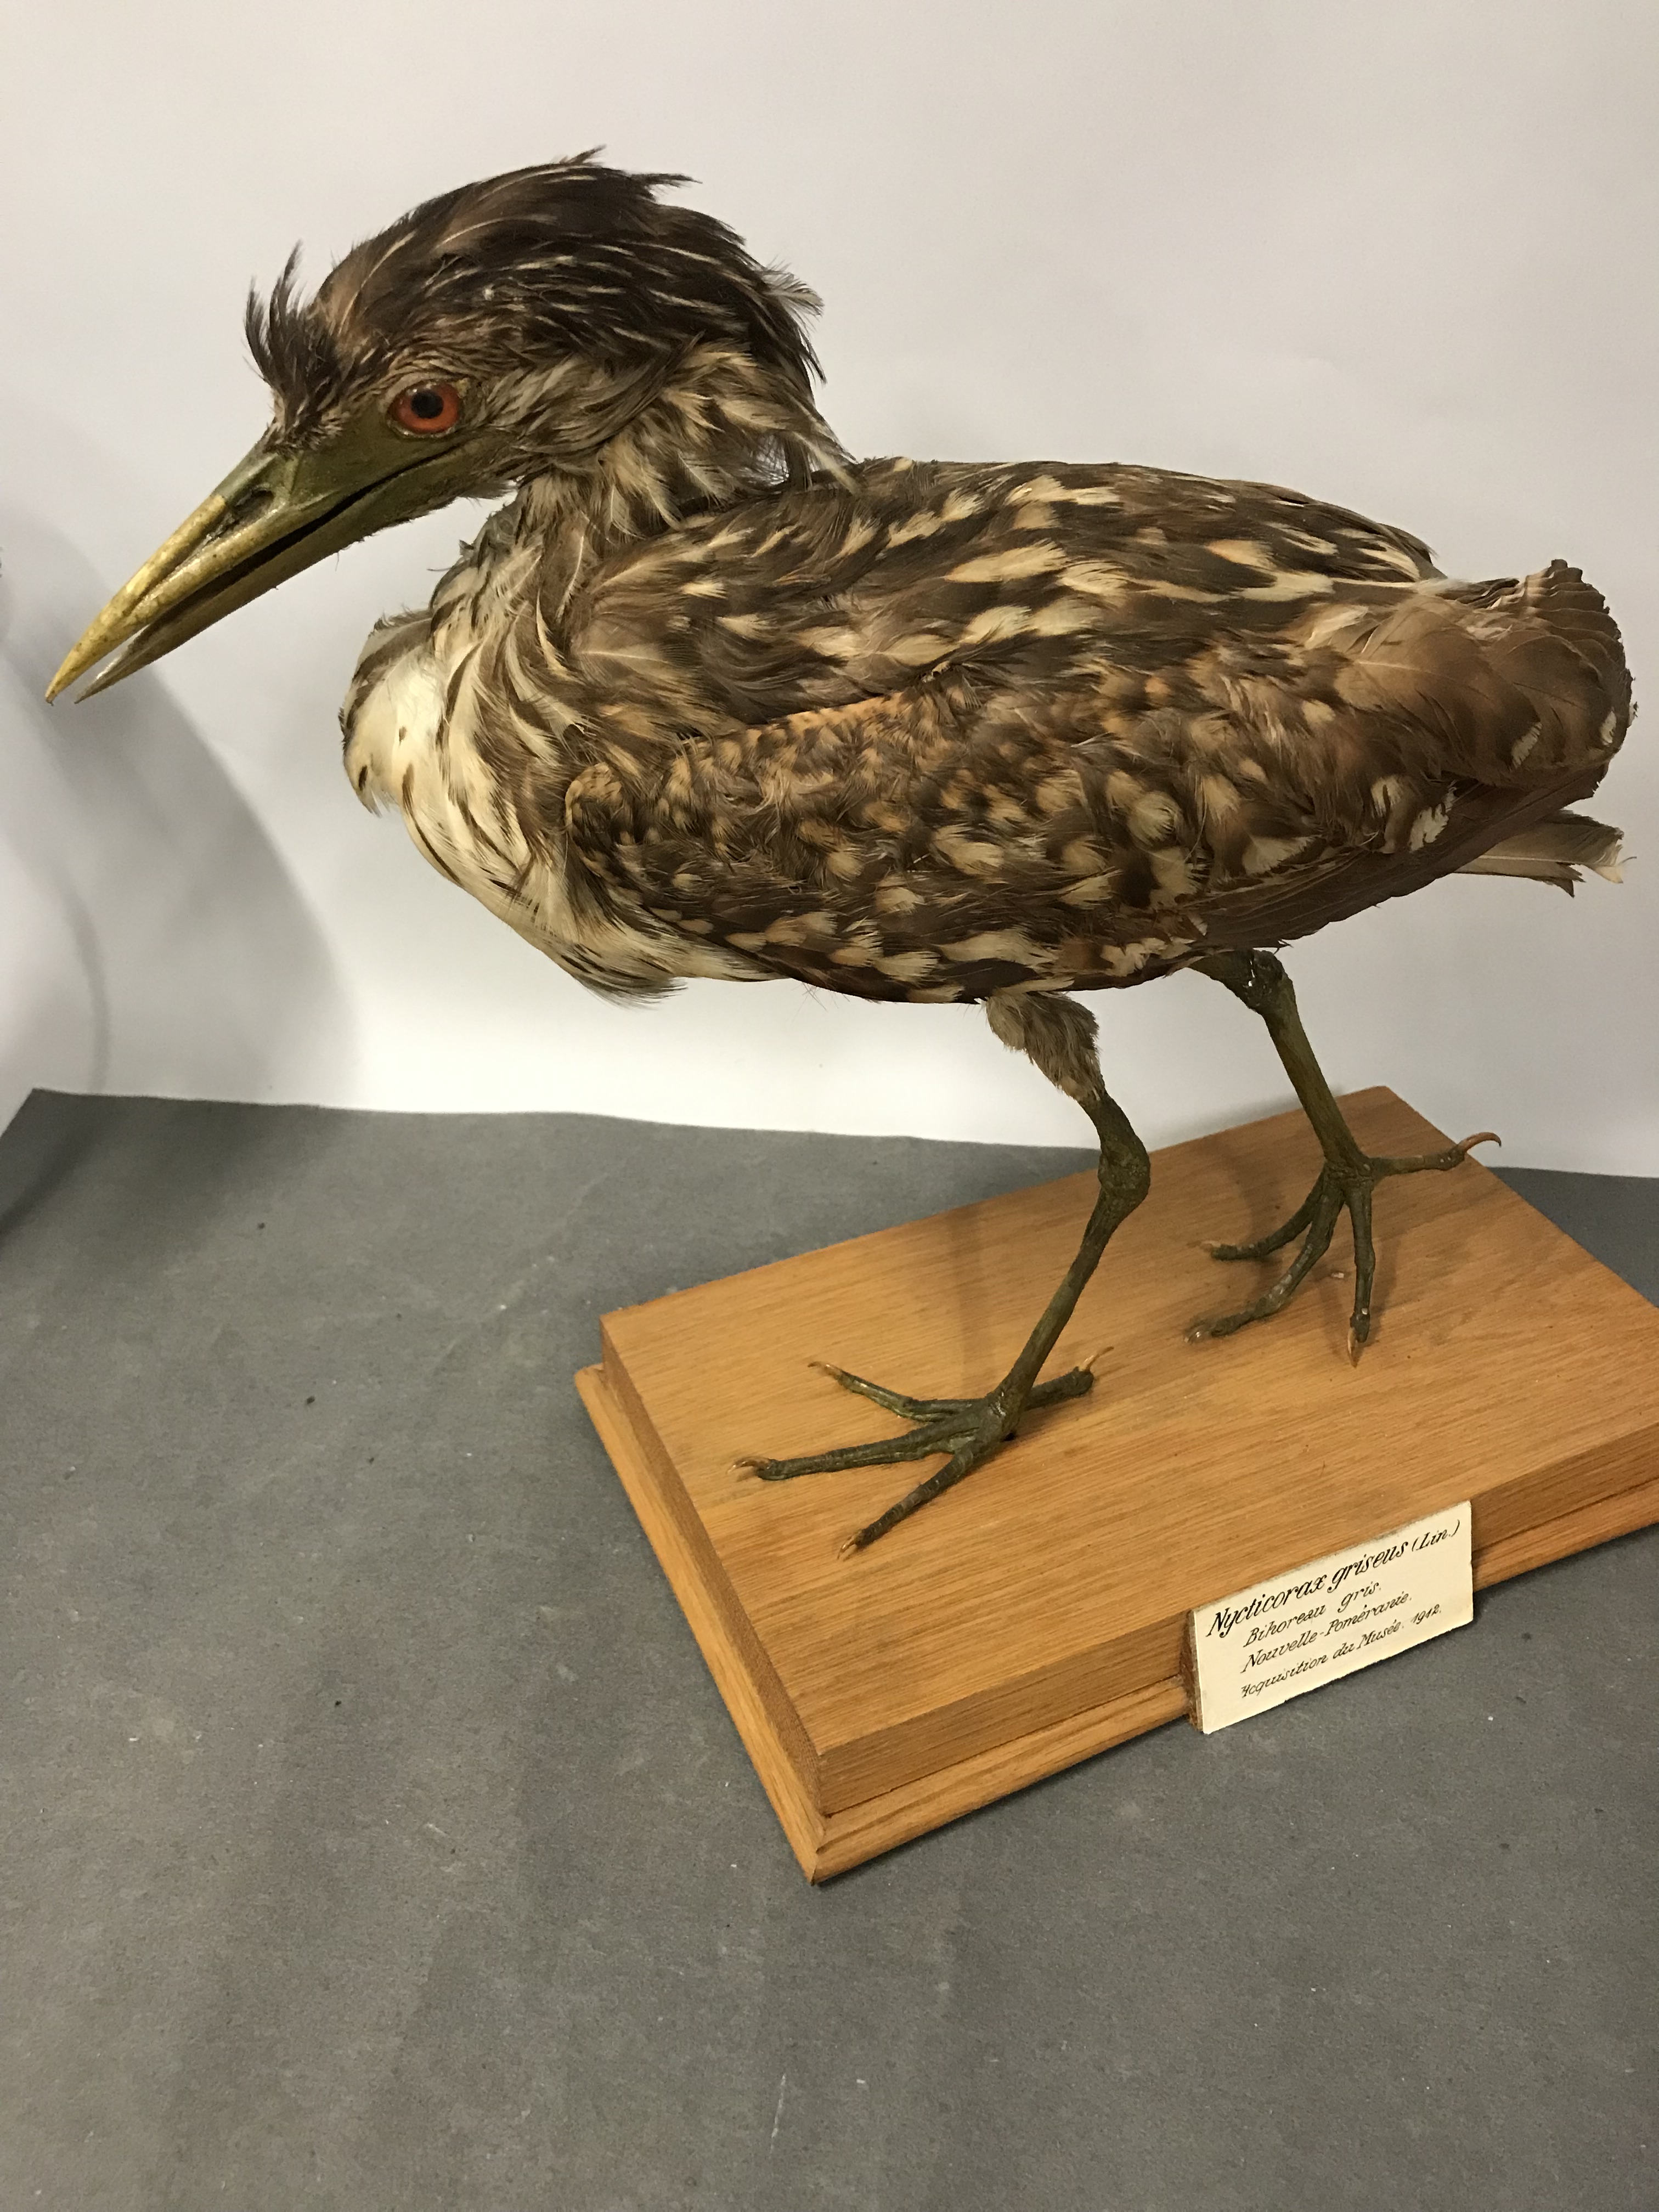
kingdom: Animalia
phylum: Chordata
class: Aves
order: Pelecaniformes
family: Ardeidae
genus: Nycticorax
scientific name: Nycticorax nycticorax
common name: Black-crowned night heron
